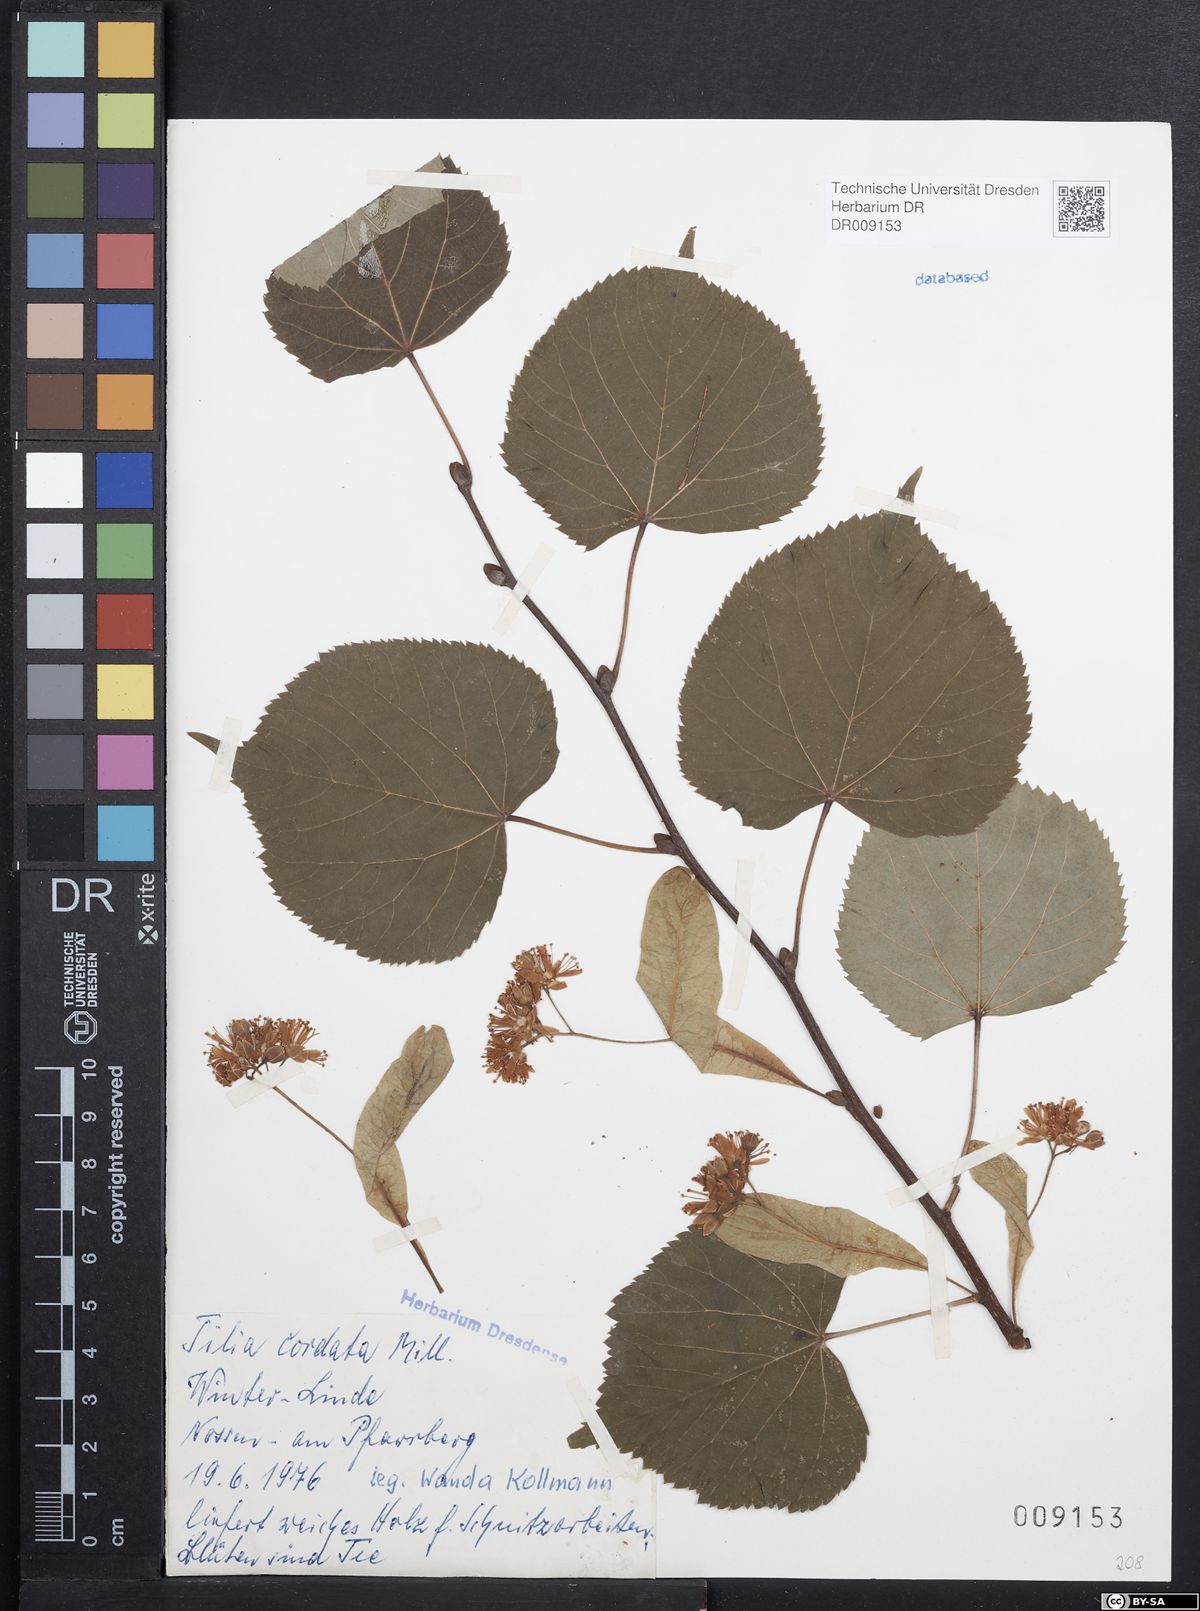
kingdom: Plantae
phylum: Tracheophyta
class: Magnoliopsida
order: Malvales
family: Malvaceae
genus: Tilia
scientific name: Tilia cordata
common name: Small-leaved lime
